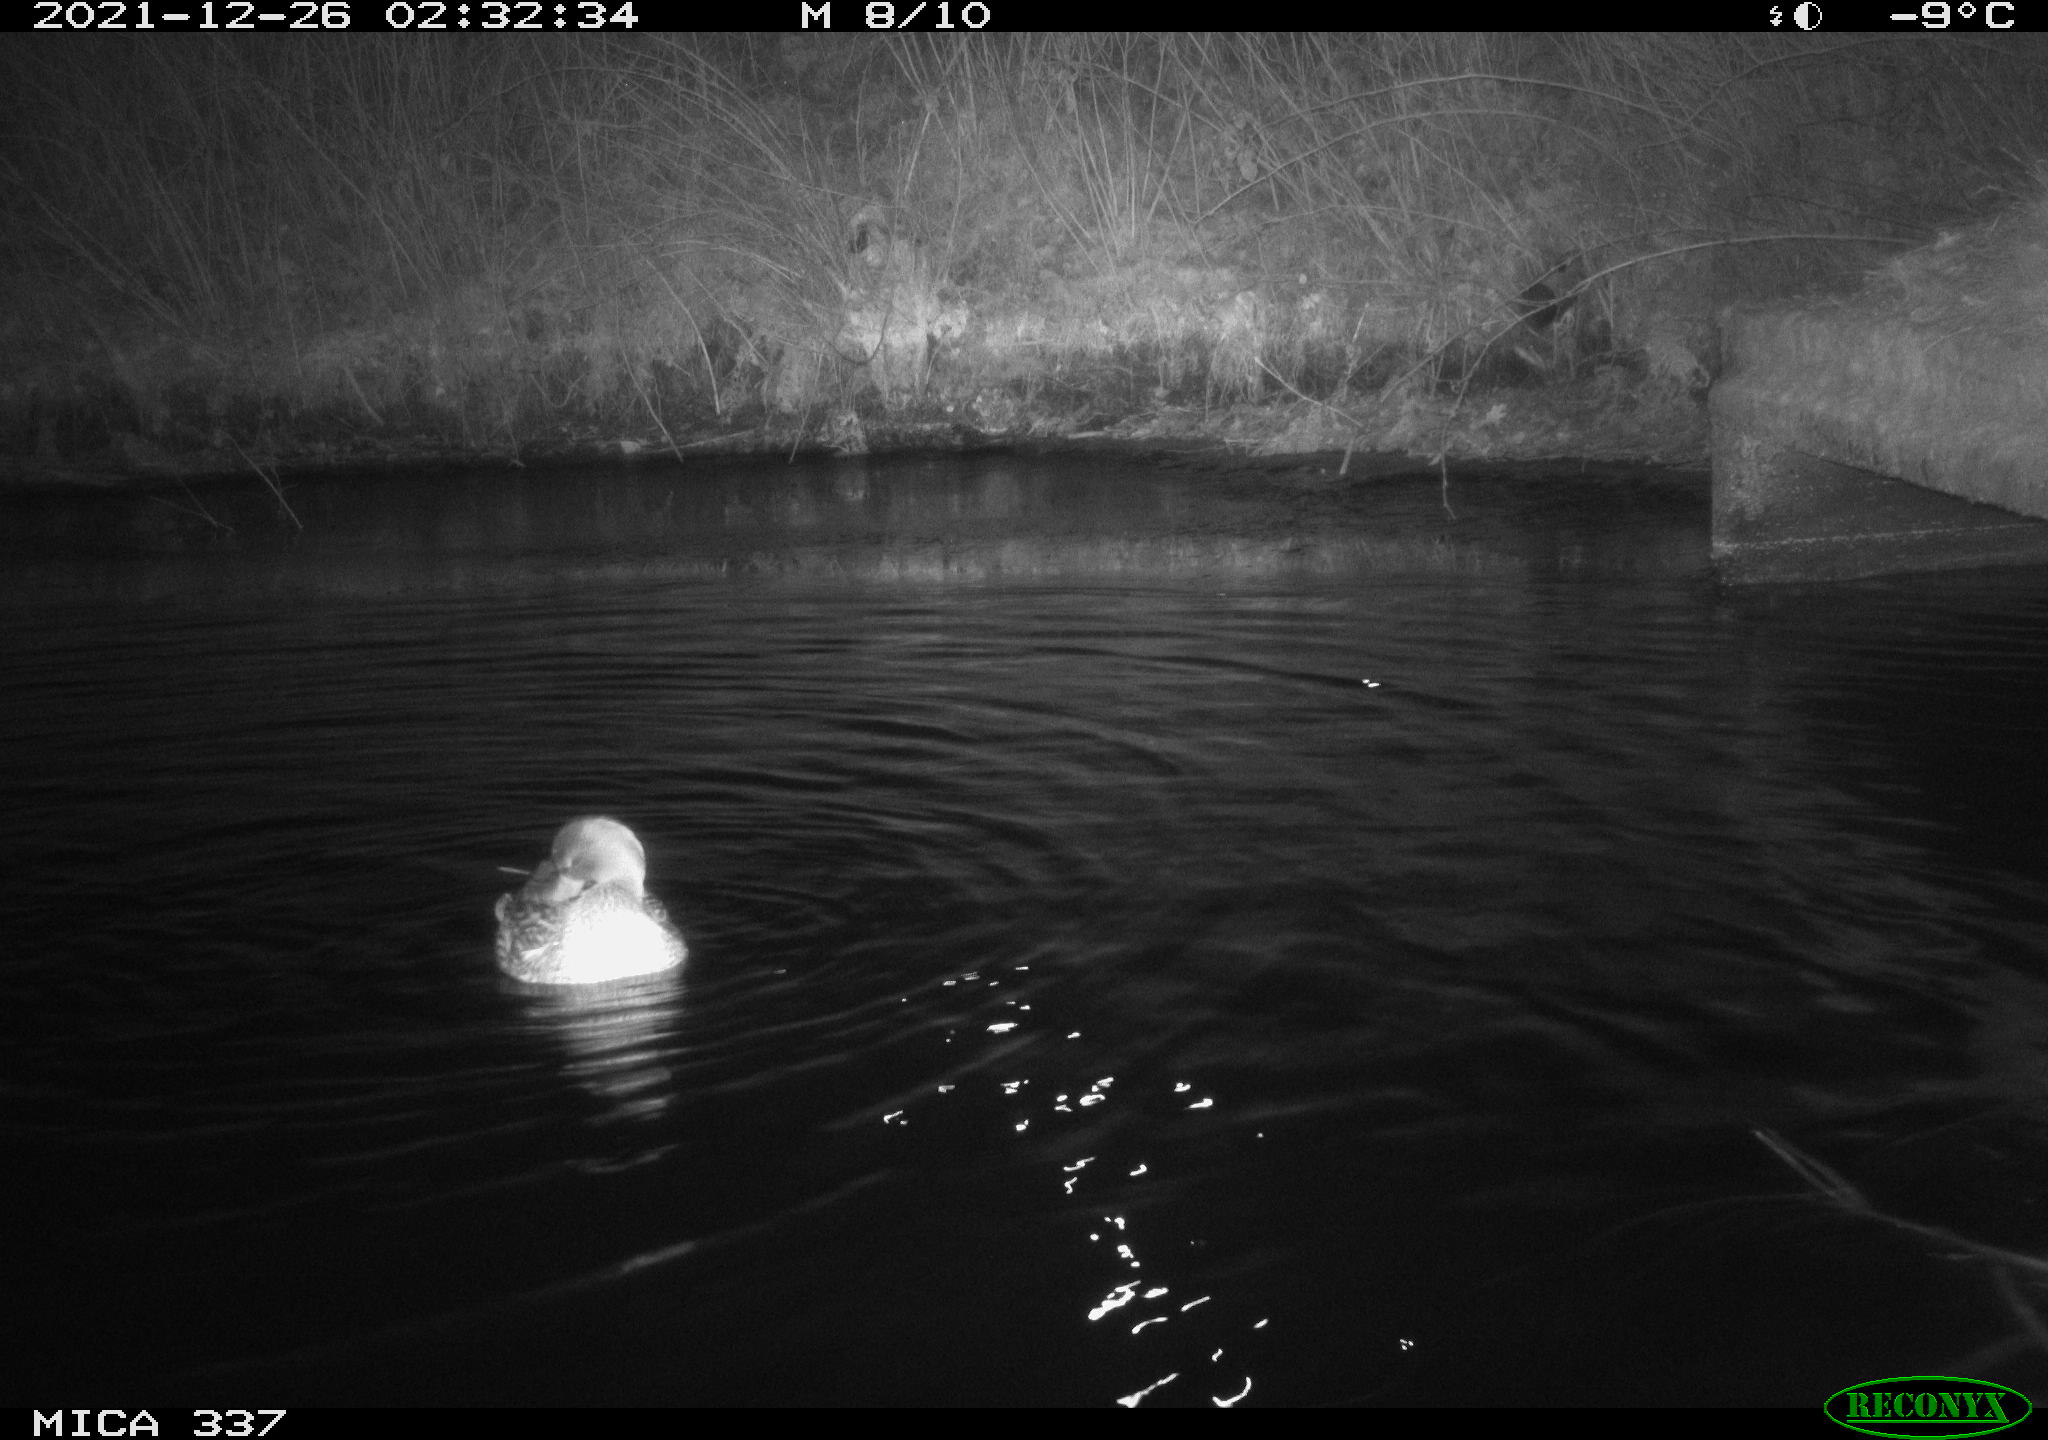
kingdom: Animalia
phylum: Chordata
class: Aves
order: Anseriformes
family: Anatidae
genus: Anas
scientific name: Anas platyrhynchos
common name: Mallard
